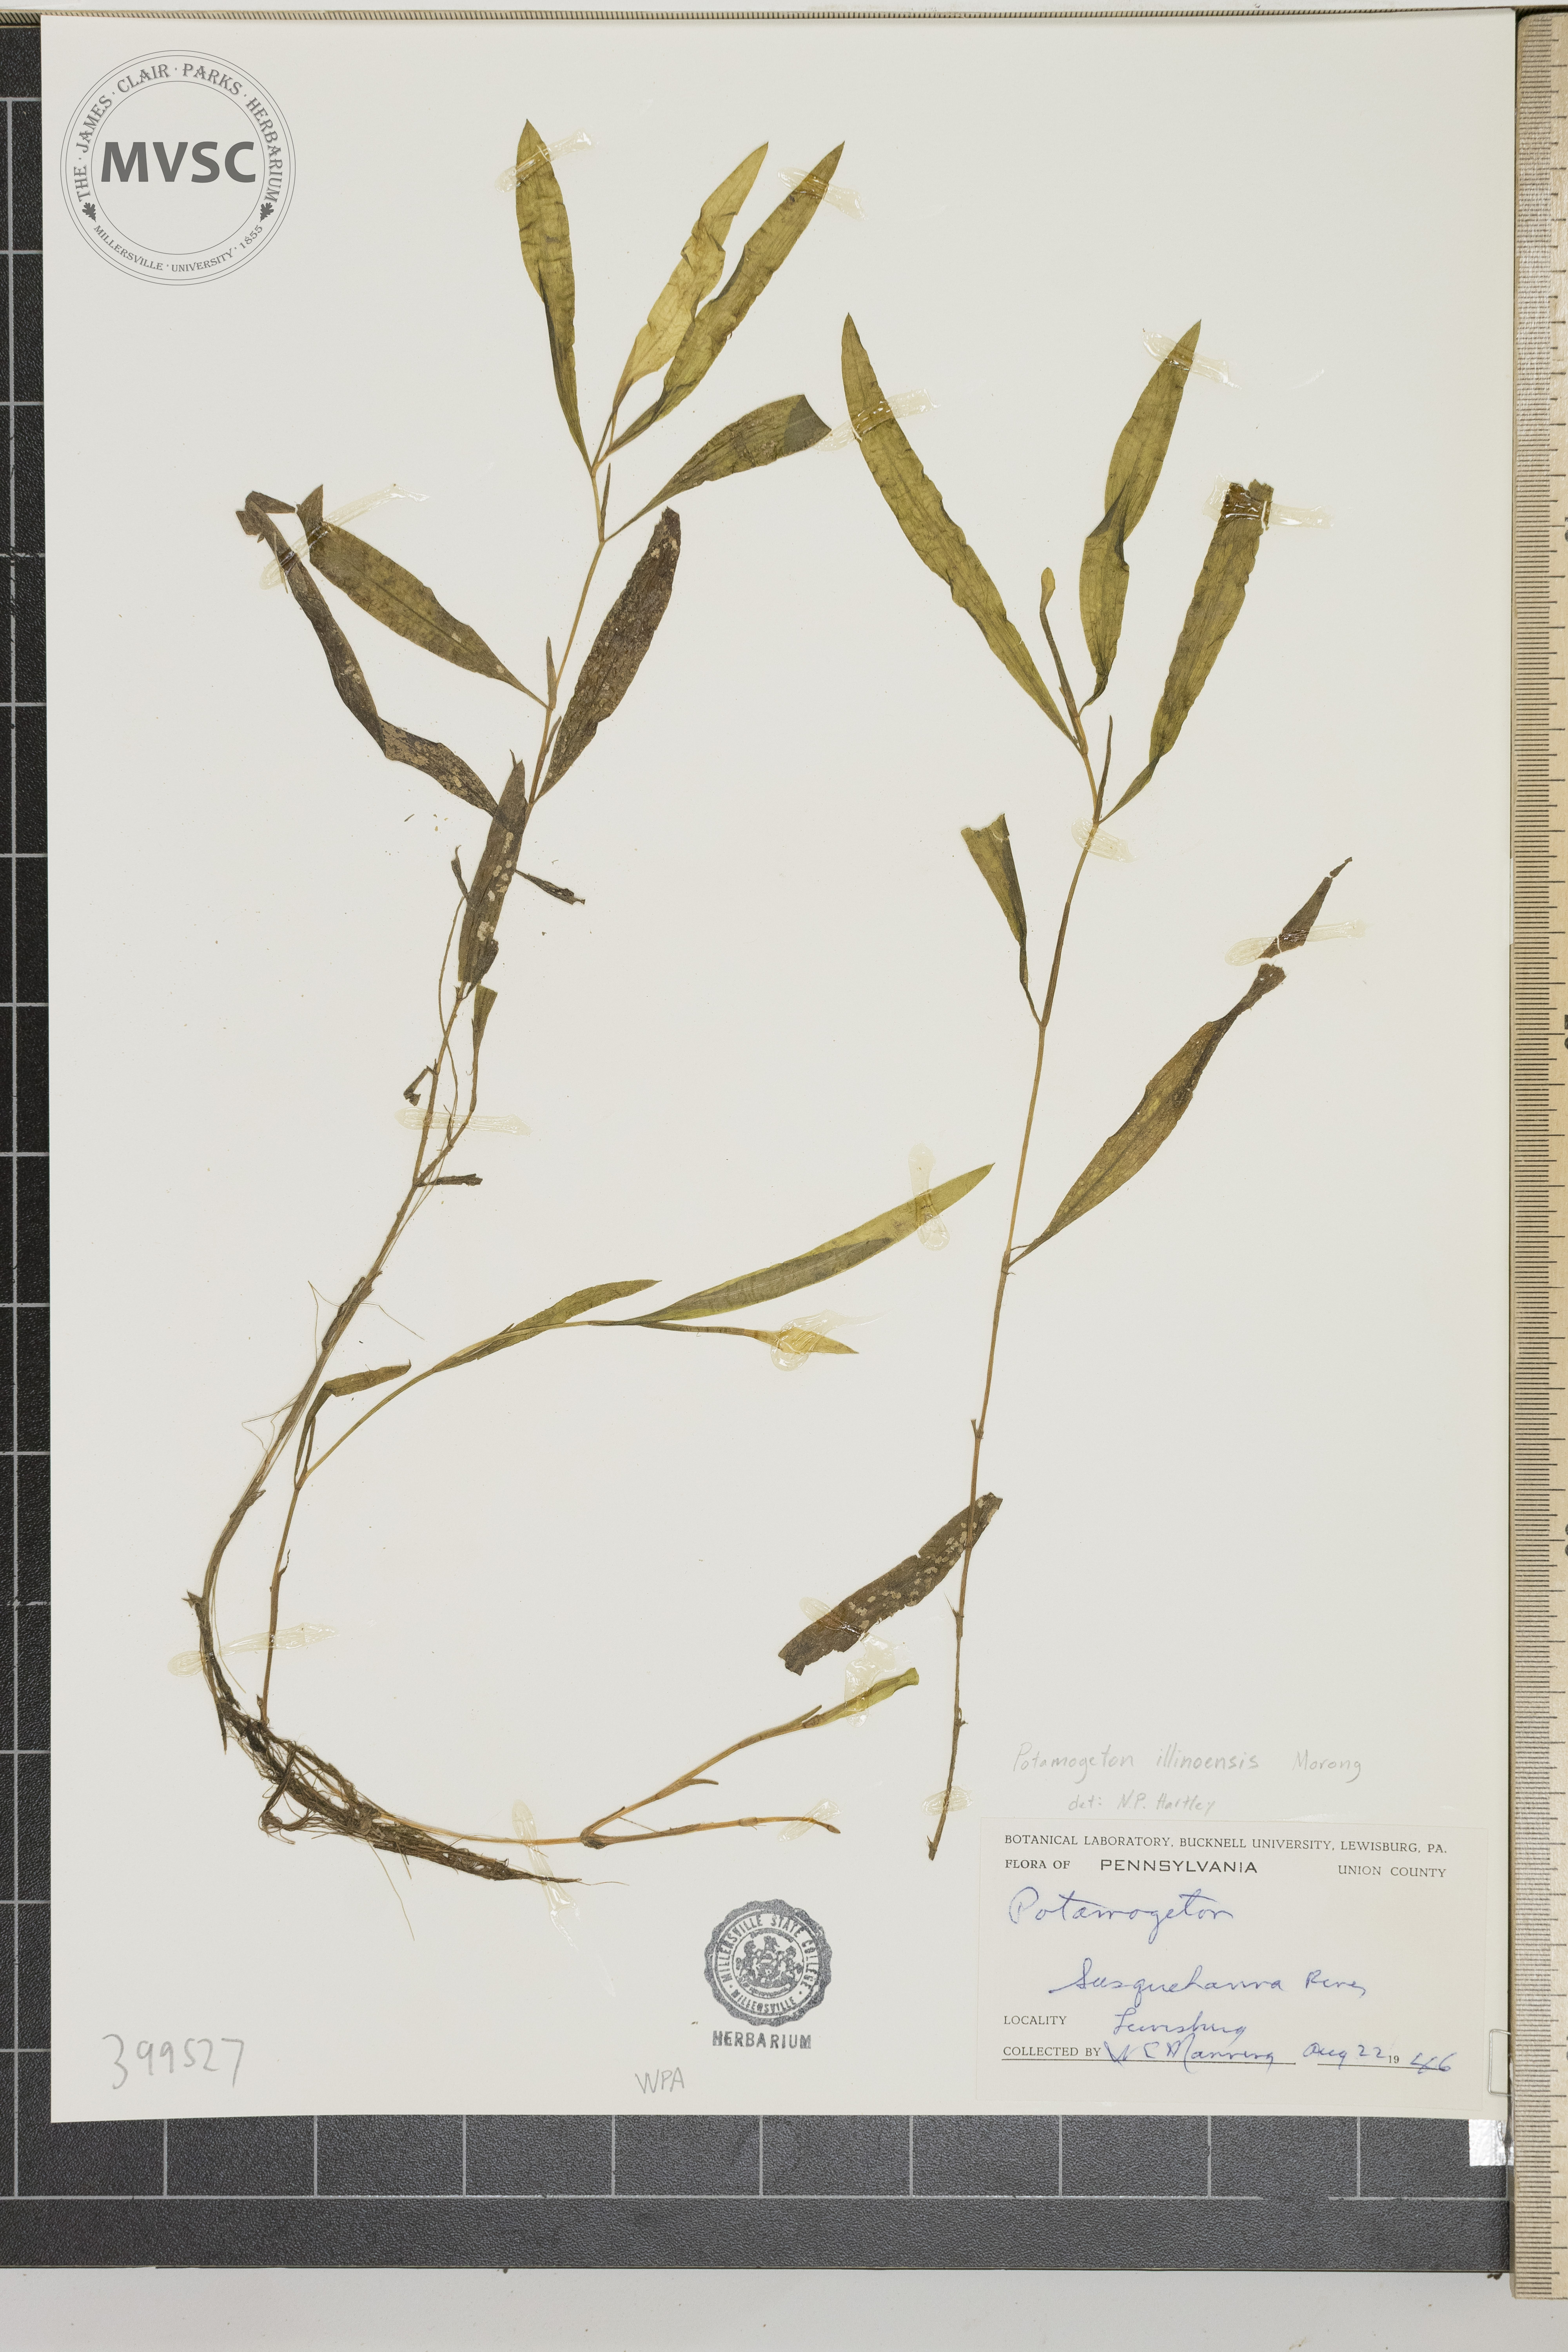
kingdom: Plantae
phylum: Tracheophyta
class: Liliopsida
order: Alismatales
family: Potamogetonaceae
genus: Potamogeton
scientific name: Potamogeton illinoensis
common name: Illinois pondweed
